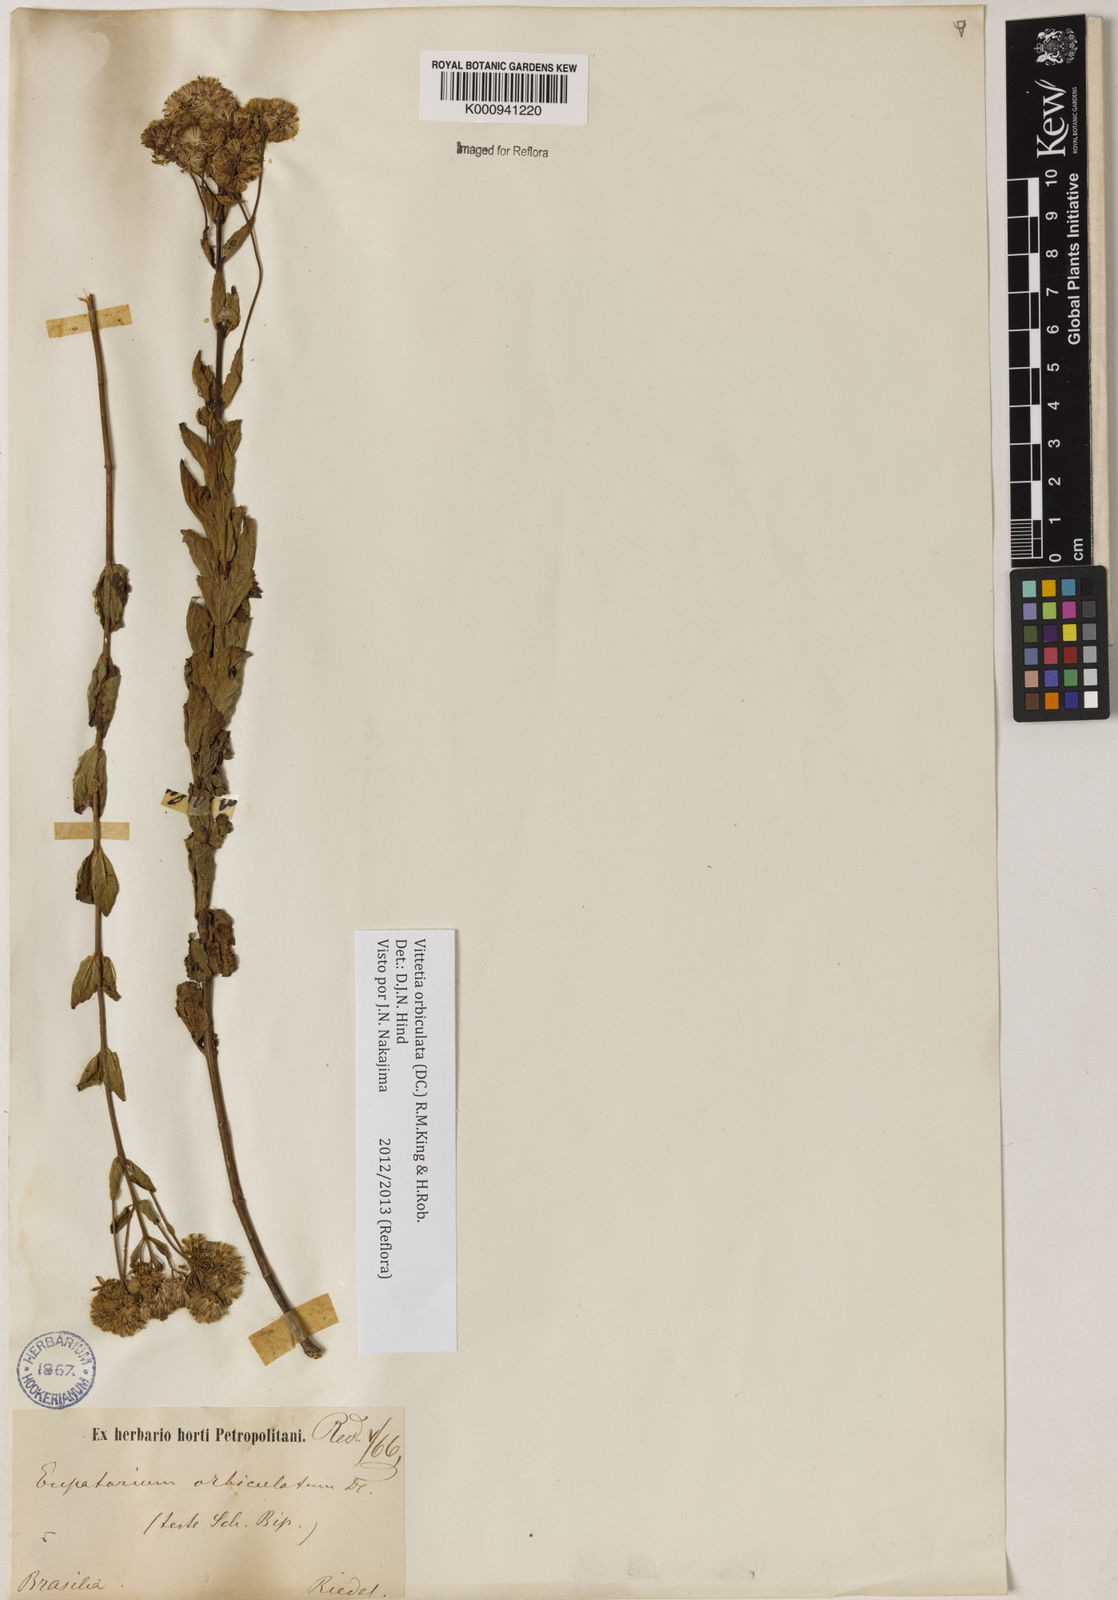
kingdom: Plantae
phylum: Tracheophyta
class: Magnoliopsida
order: Asterales
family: Asteraceae
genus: Vittetia
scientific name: Vittetia orbiculata
